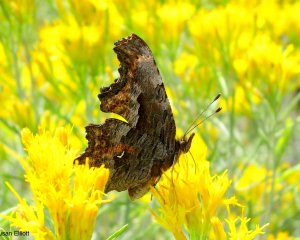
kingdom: Animalia
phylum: Arthropoda
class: Insecta
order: Lepidoptera
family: Nymphalidae
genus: Polygonia
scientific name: Polygonia gracilis
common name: Hoary Comma
